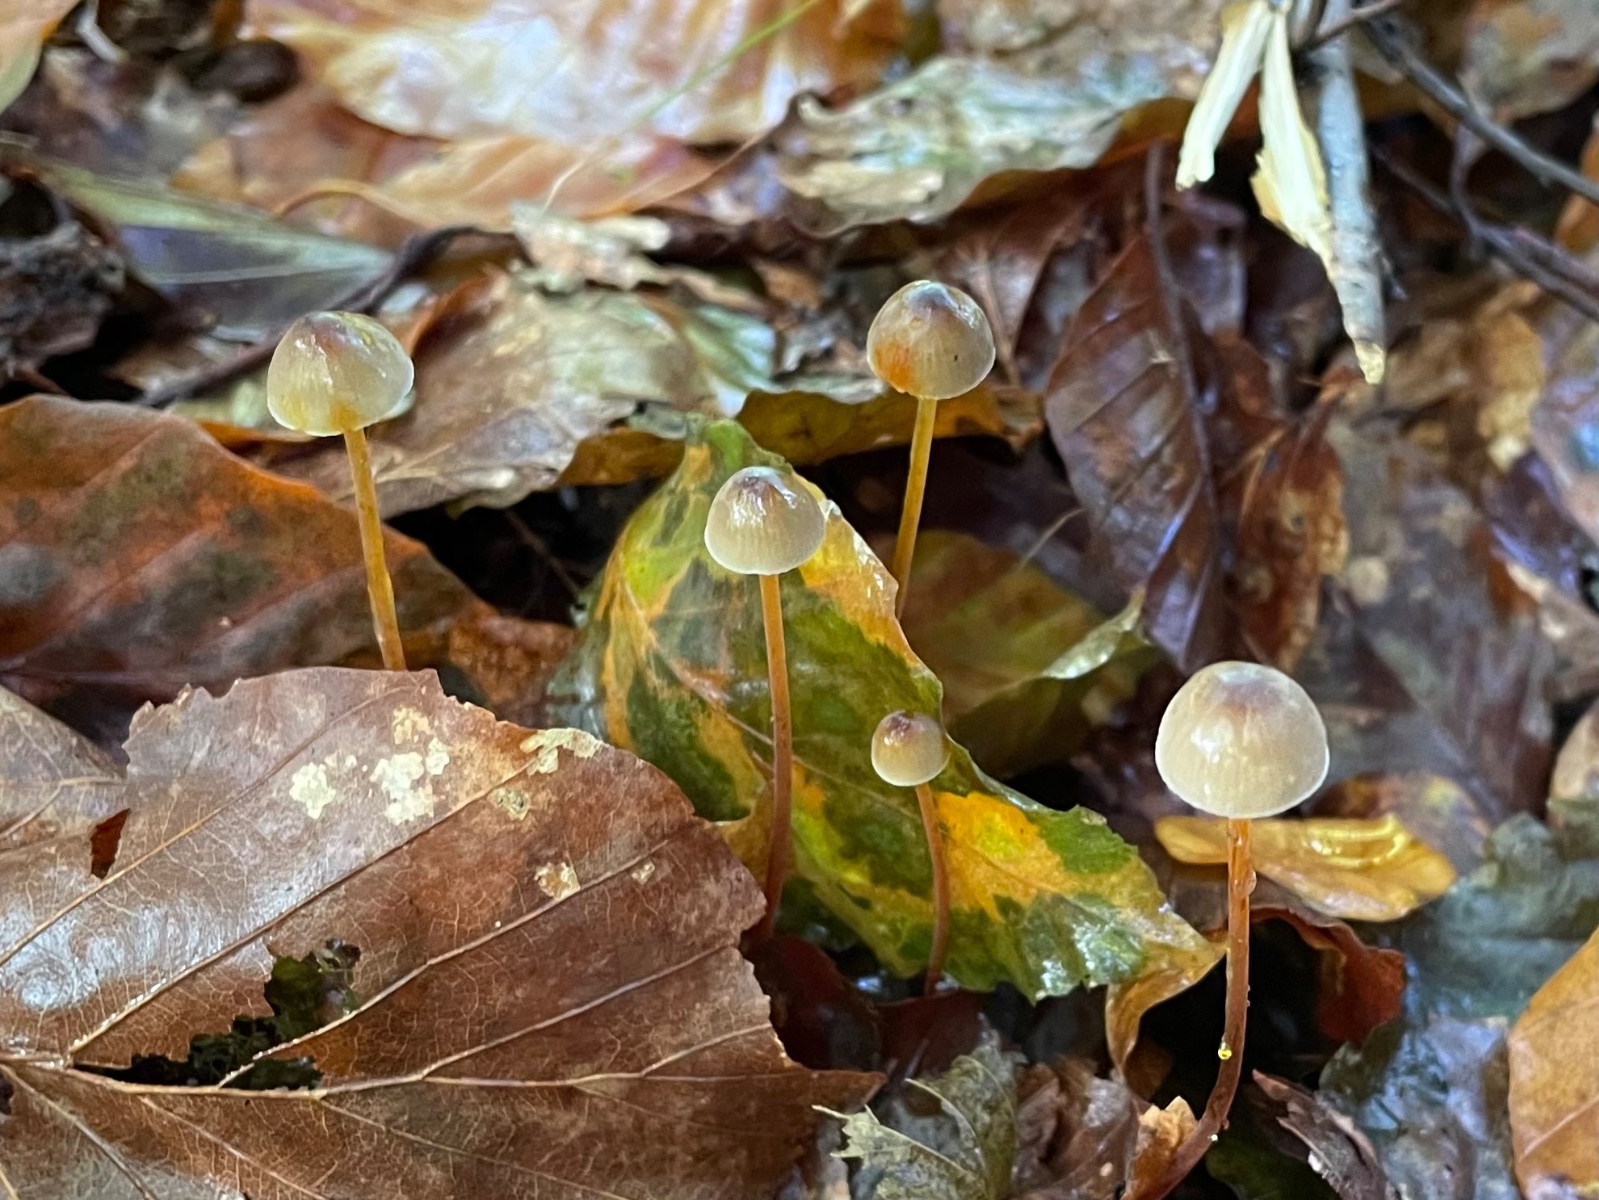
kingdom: Fungi
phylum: Basidiomycota
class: Agaricomycetes
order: Agaricales
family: Mycenaceae
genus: Mycena
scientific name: Mycena crocata
